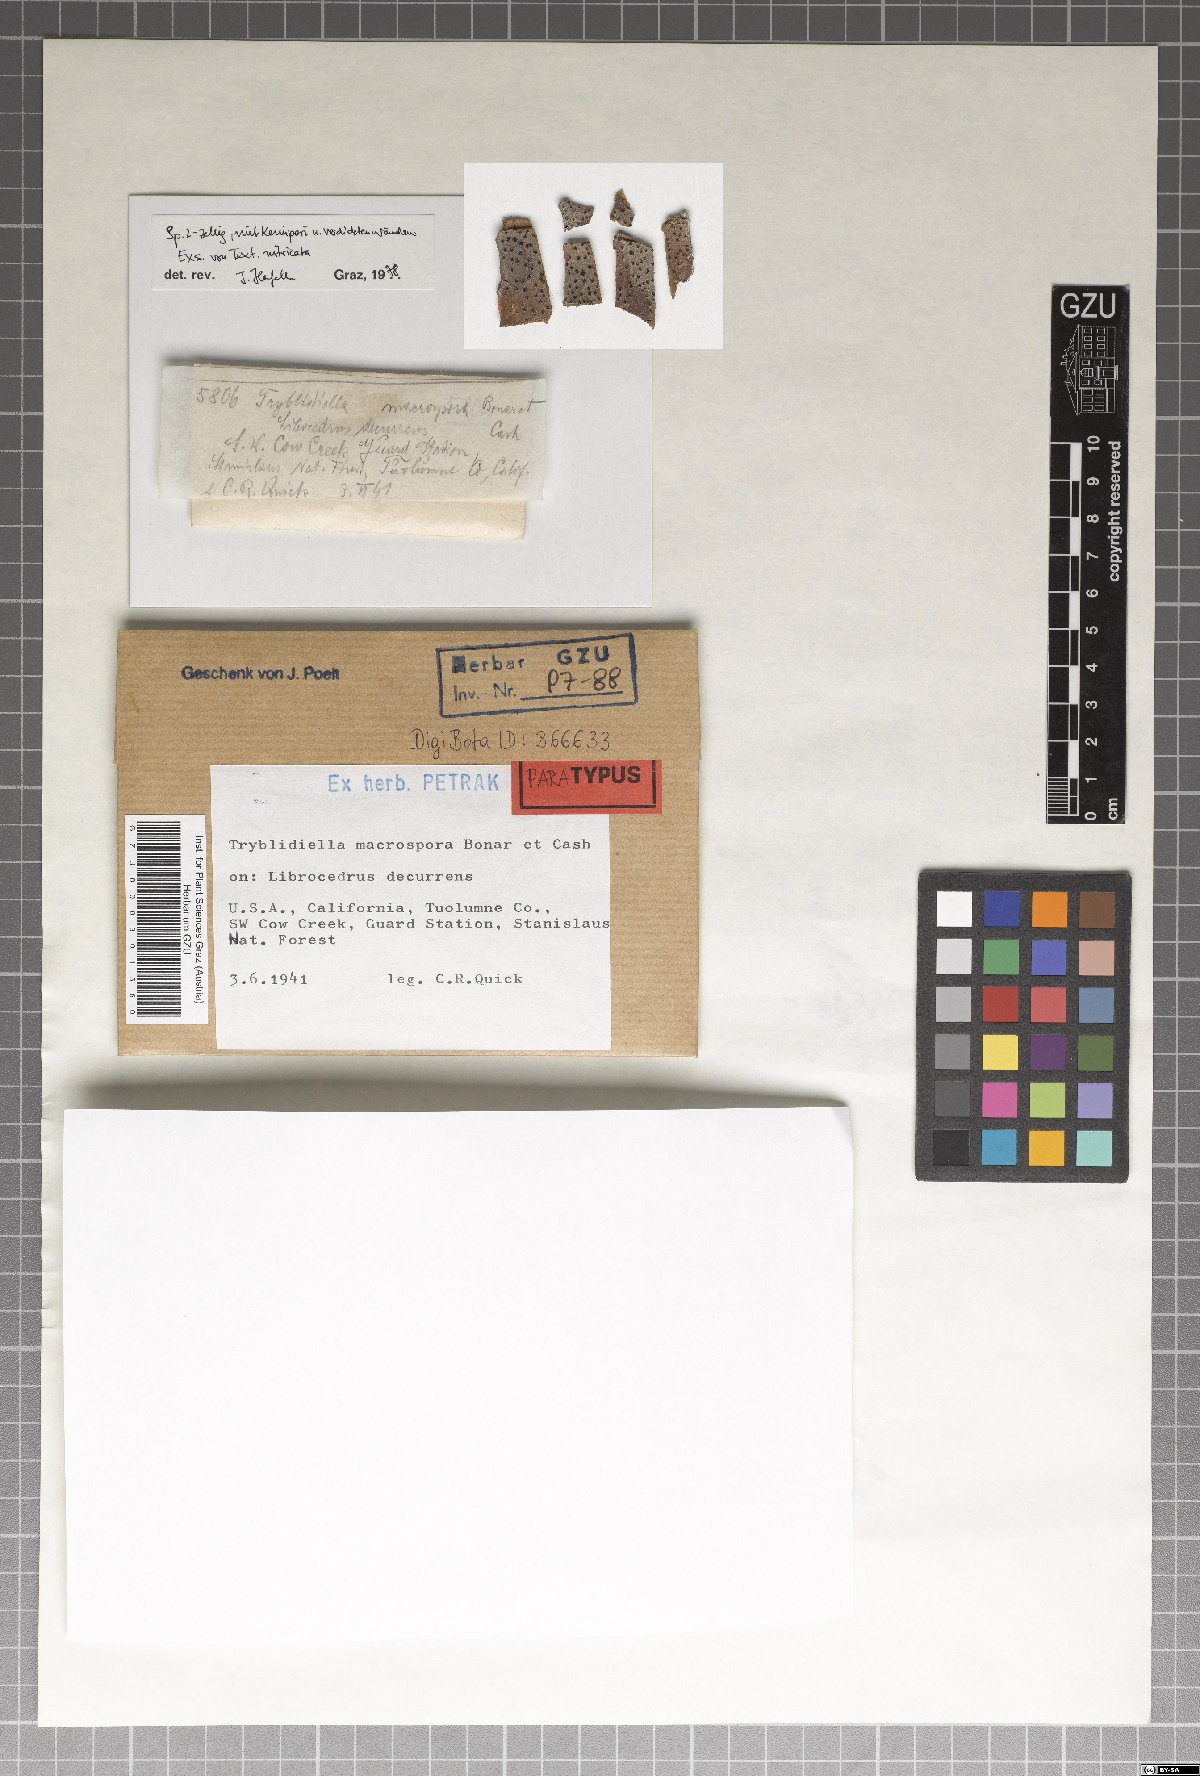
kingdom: Fungi
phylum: Ascomycota
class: Dothideomycetes
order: Patellariales
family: Patellariaceae
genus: Holmiella
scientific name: Holmiella macrospora
